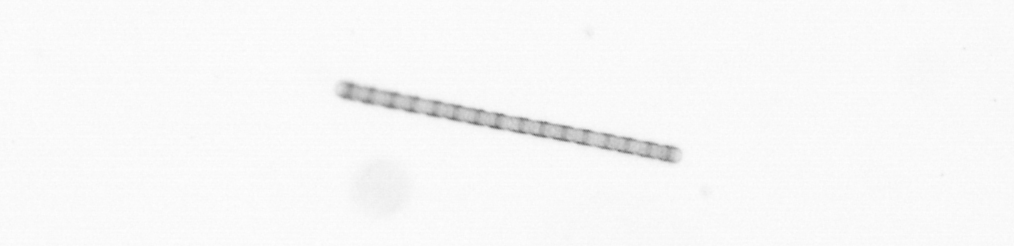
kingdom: Chromista
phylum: Ochrophyta
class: Bacillariophyceae
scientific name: Bacillariophyceae
